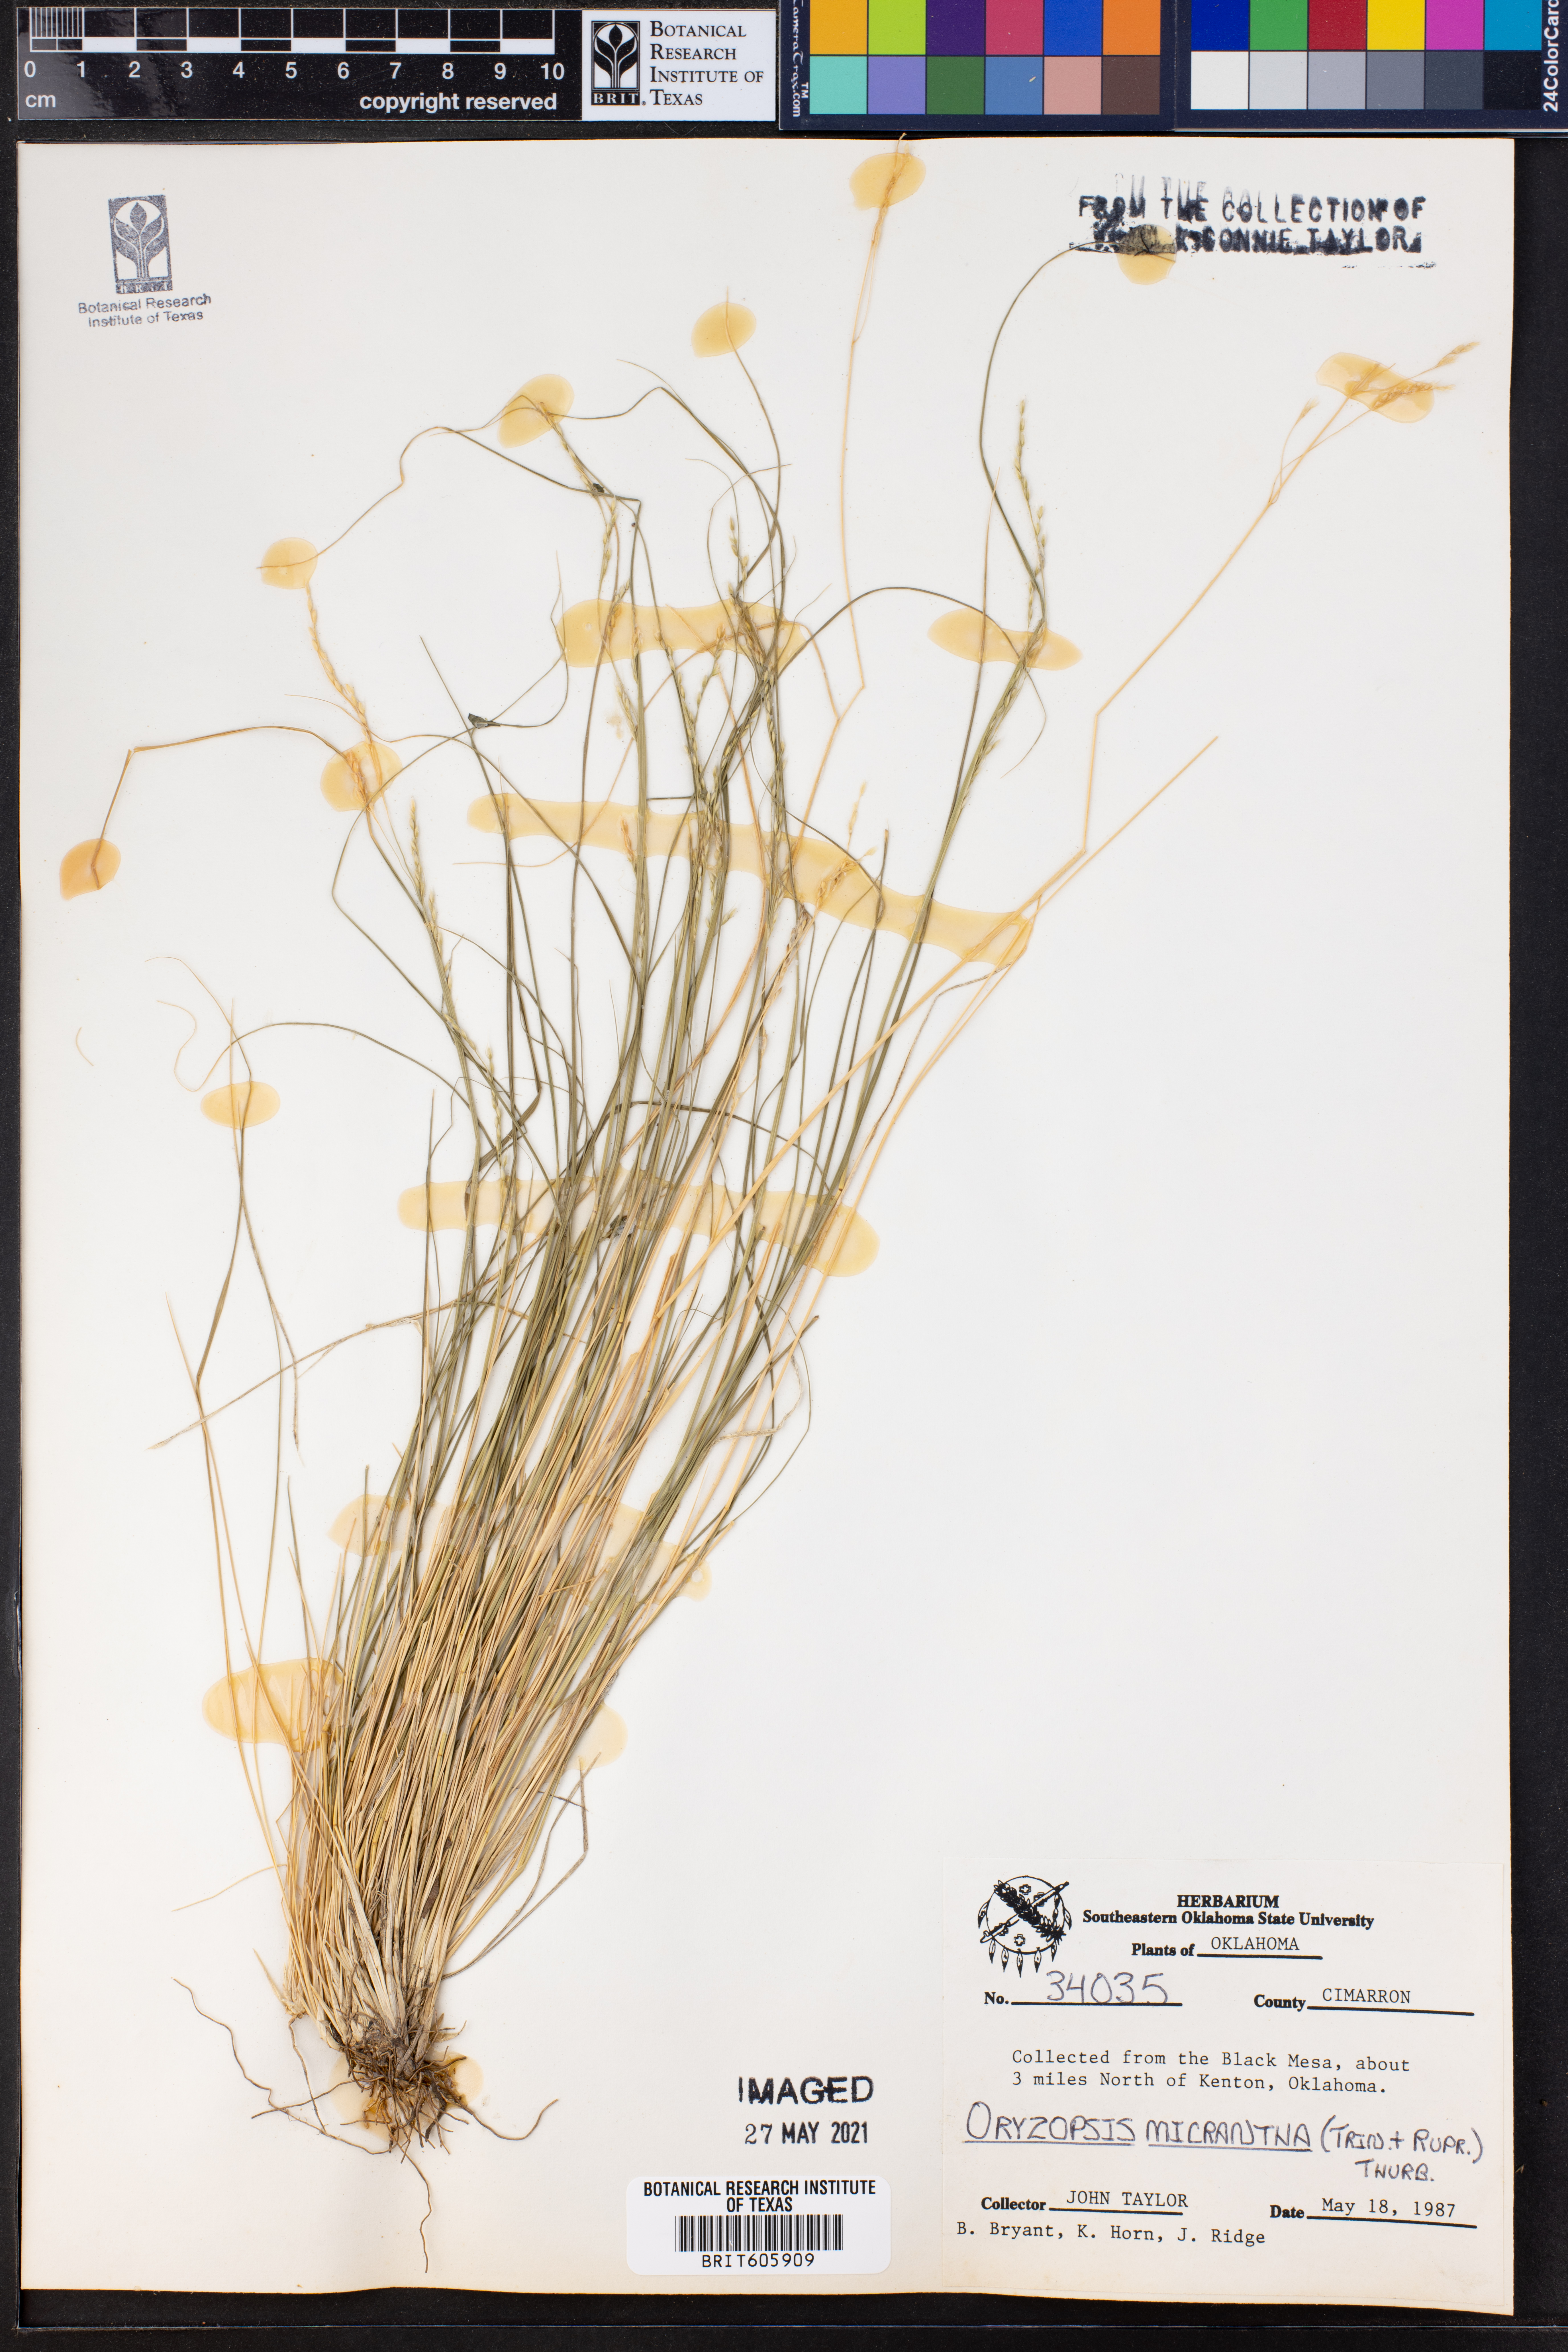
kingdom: Plantae
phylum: Tracheophyta
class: Liliopsida
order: Poales
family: Poaceae
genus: Piptatheropsis
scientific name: Piptatheropsis micrantha
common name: Little-seed mountain ricegrass
